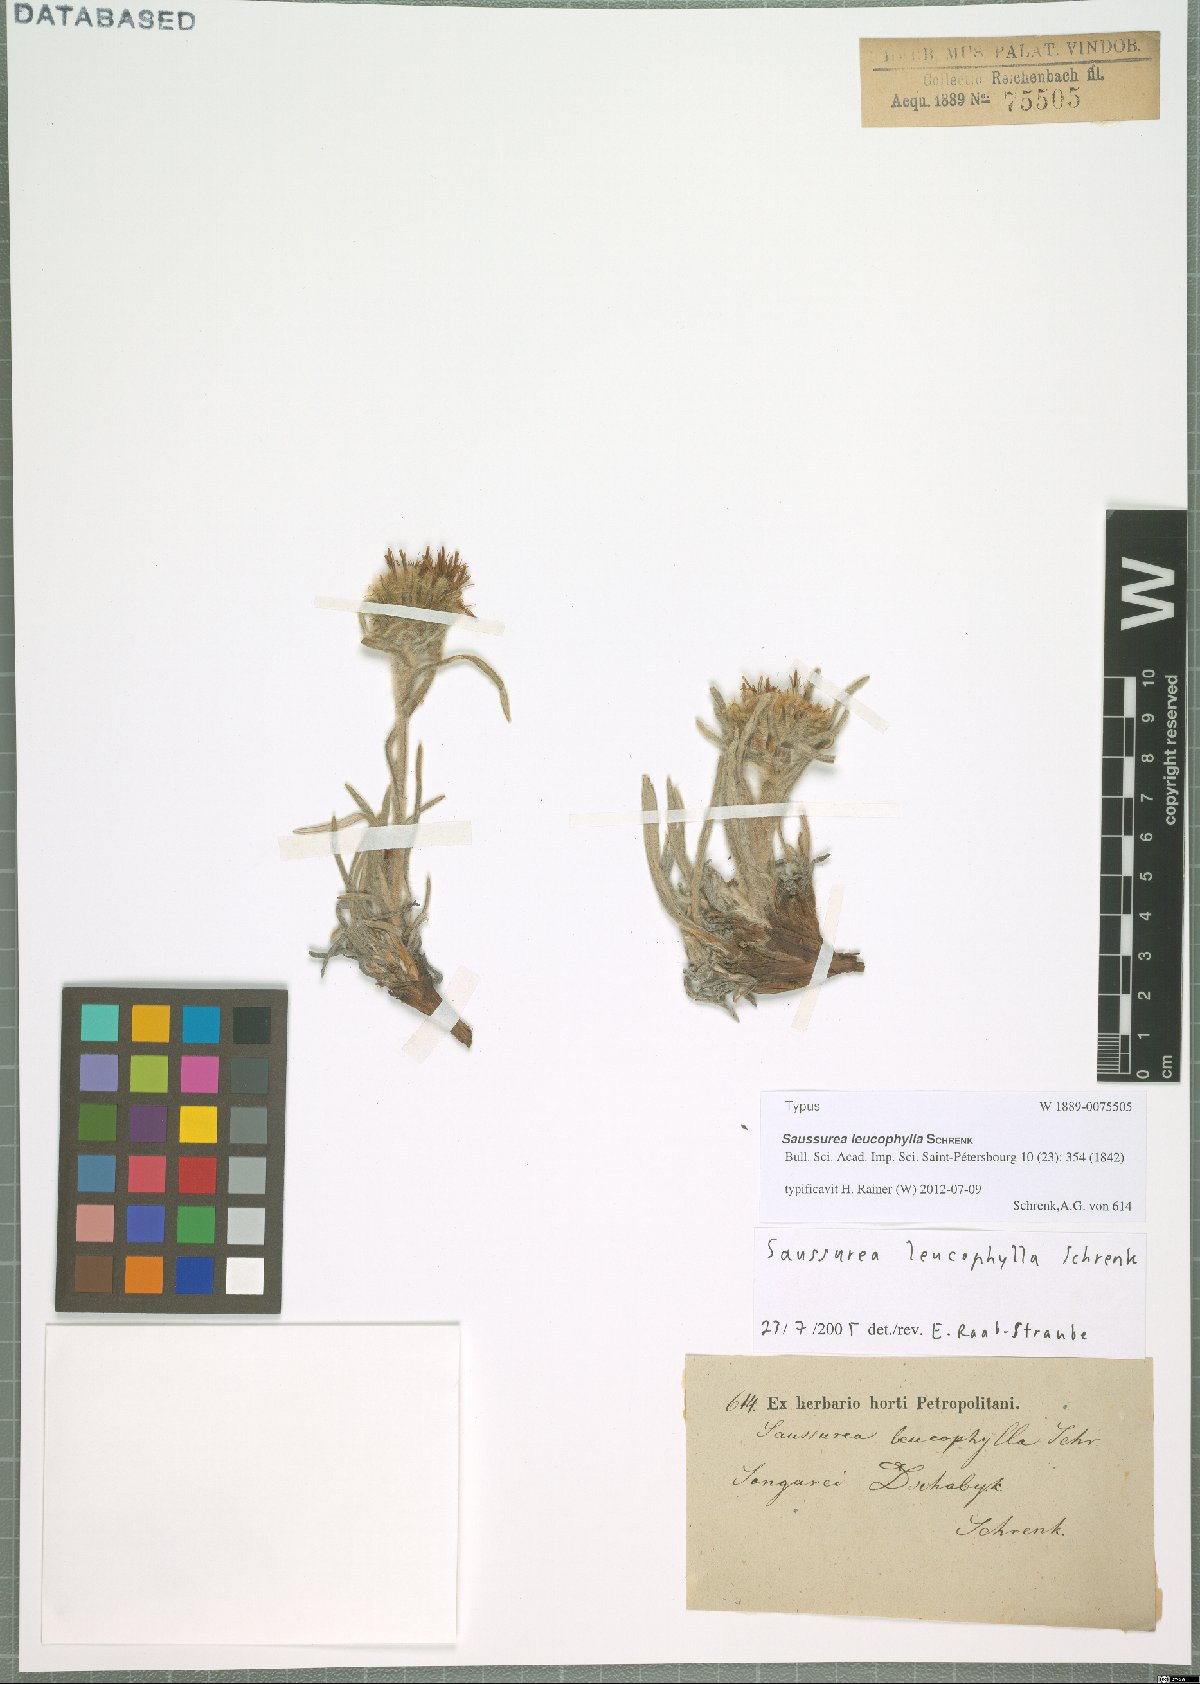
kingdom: Plantae
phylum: Tracheophyta
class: Magnoliopsida
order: Asterales
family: Asteraceae
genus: Saussurea
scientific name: Saussurea leucophylla
